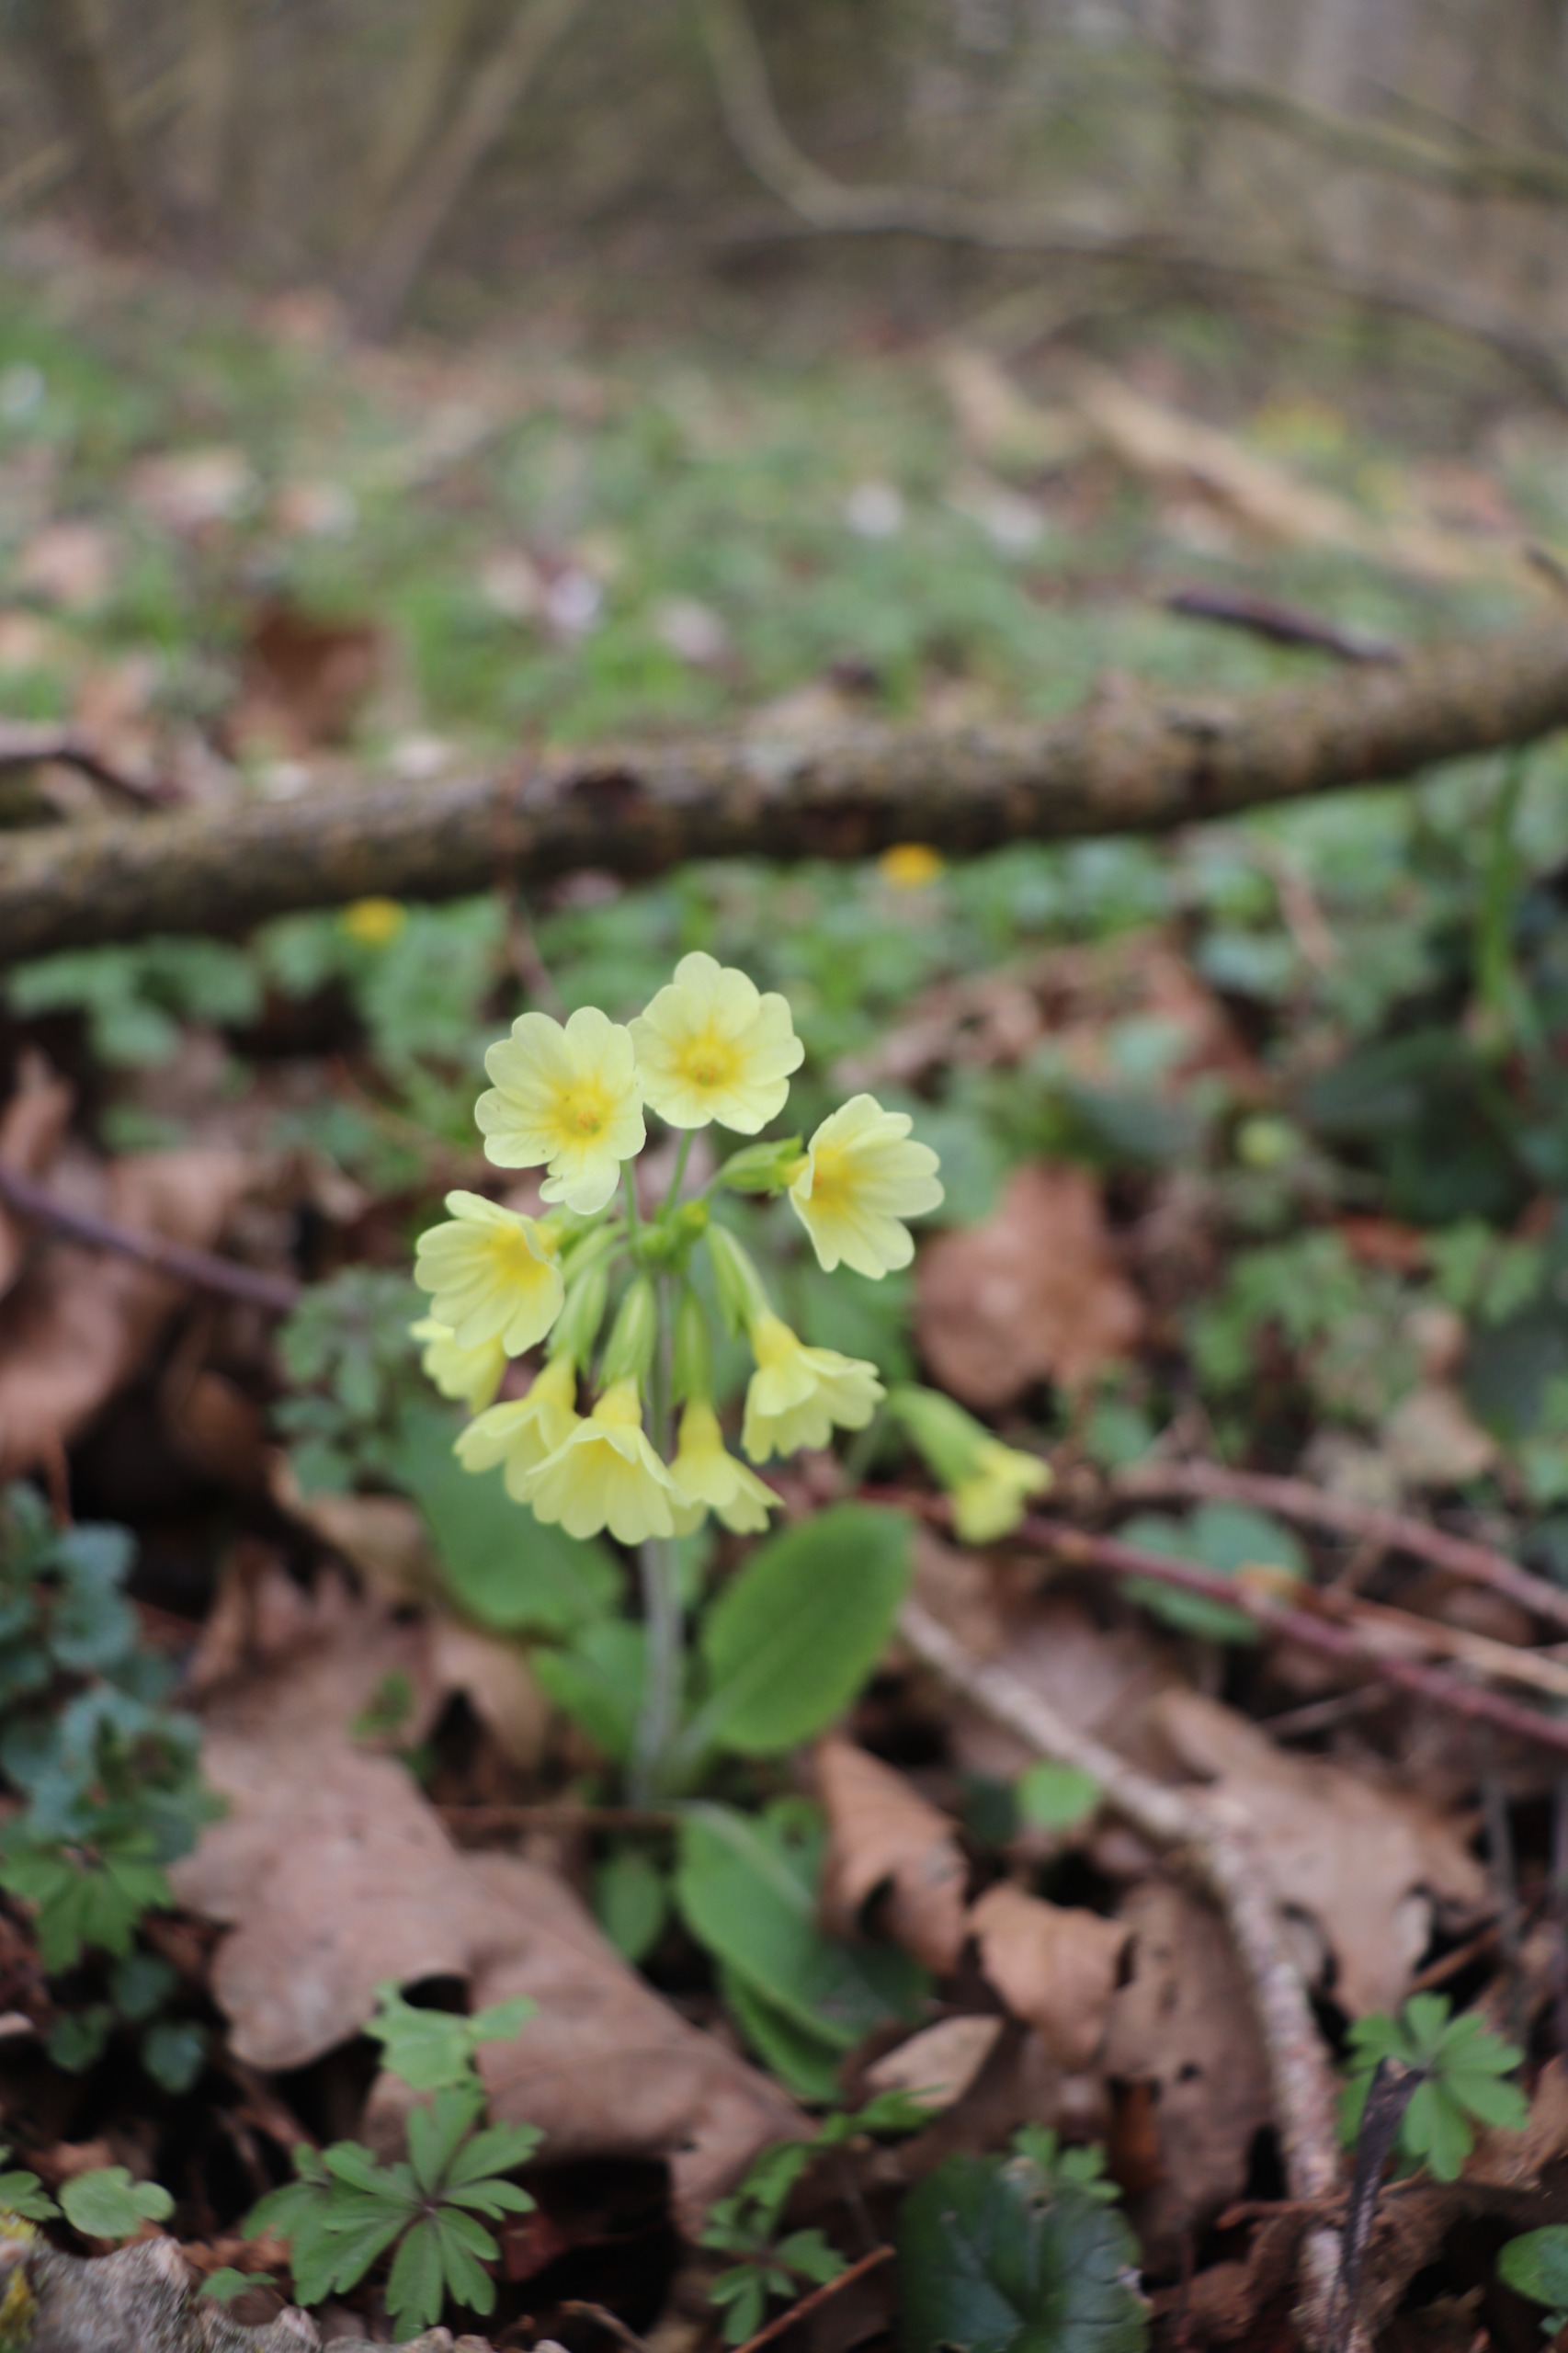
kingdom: Plantae
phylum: Tracheophyta
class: Magnoliopsida
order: Ericales
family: Primulaceae
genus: Primula
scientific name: Primula elatior
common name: Fladkravet kodriver
